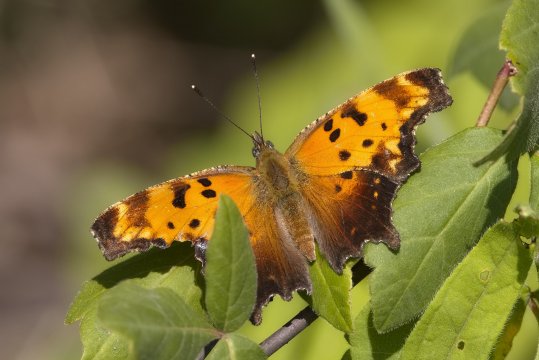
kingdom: Animalia
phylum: Arthropoda
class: Insecta
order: Lepidoptera
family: Nymphalidae
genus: Polygonia
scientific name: Polygonia progne
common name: Gray Comma
